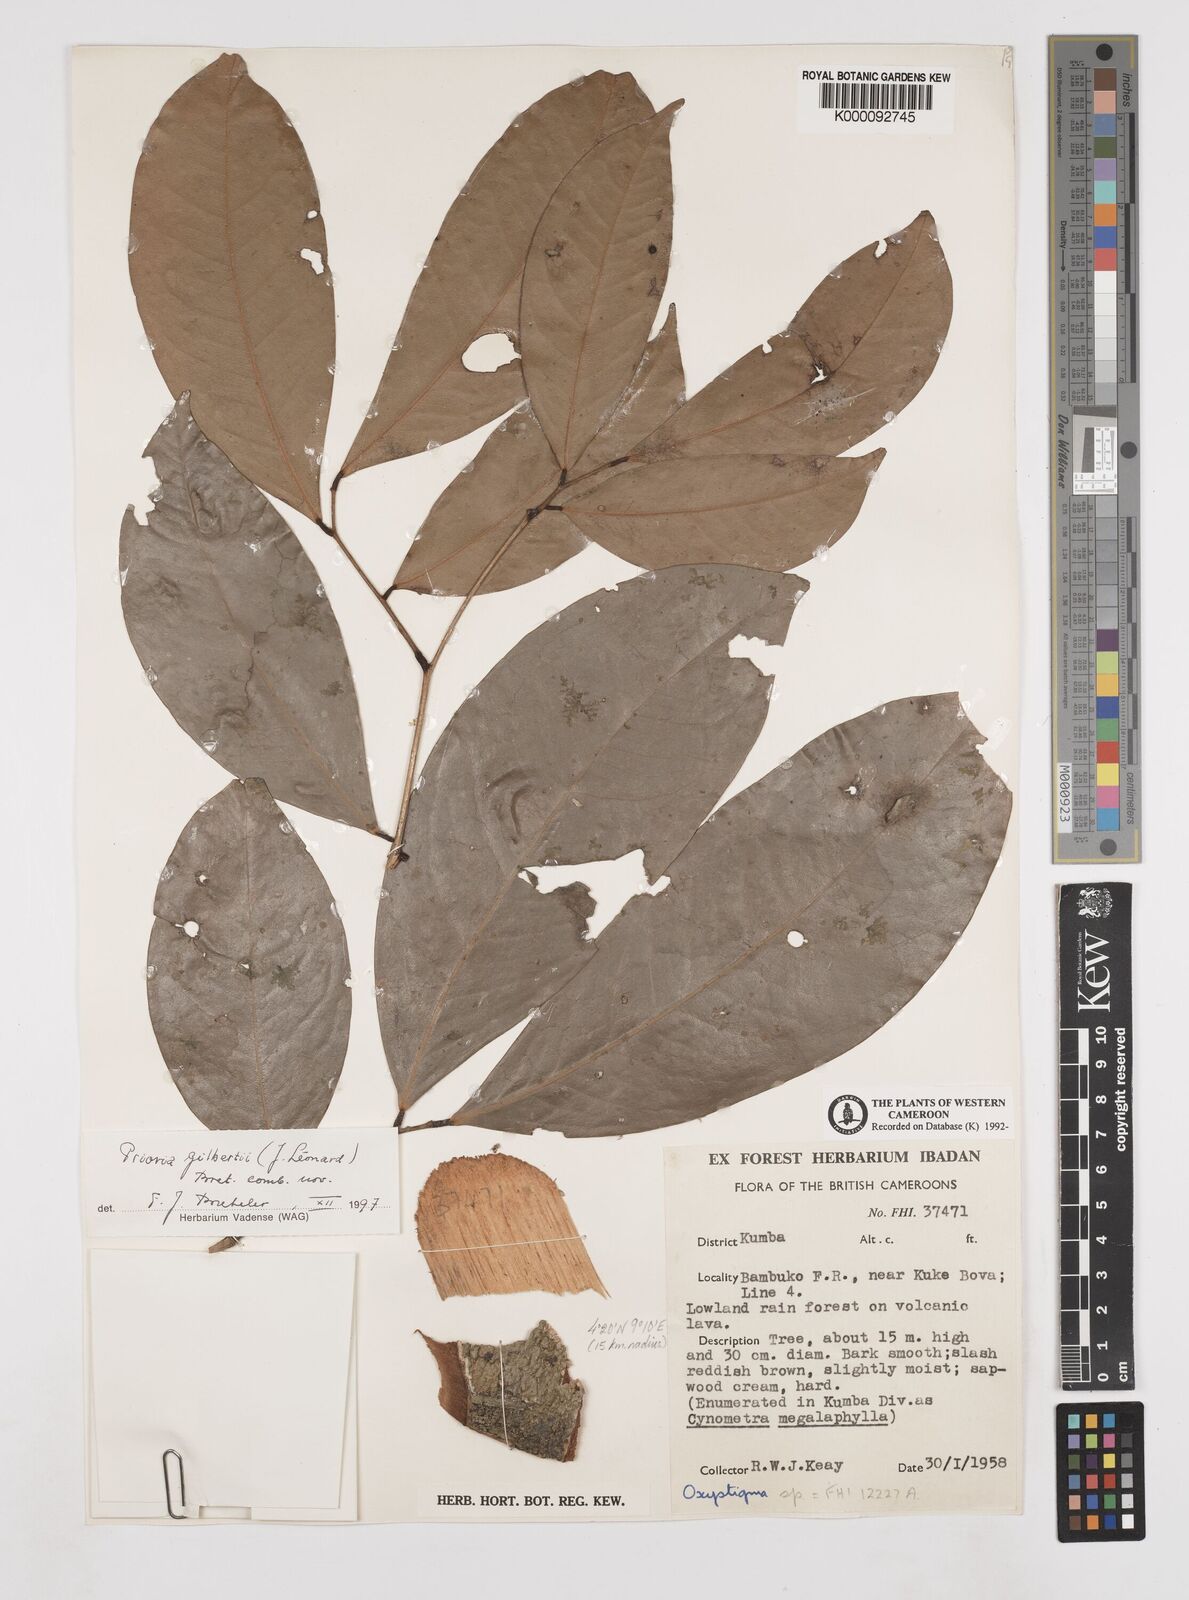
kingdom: Animalia
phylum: Arthropoda
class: Insecta
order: Odonata
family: Heteragrionidae
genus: Oxystigma
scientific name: Oxystigma
